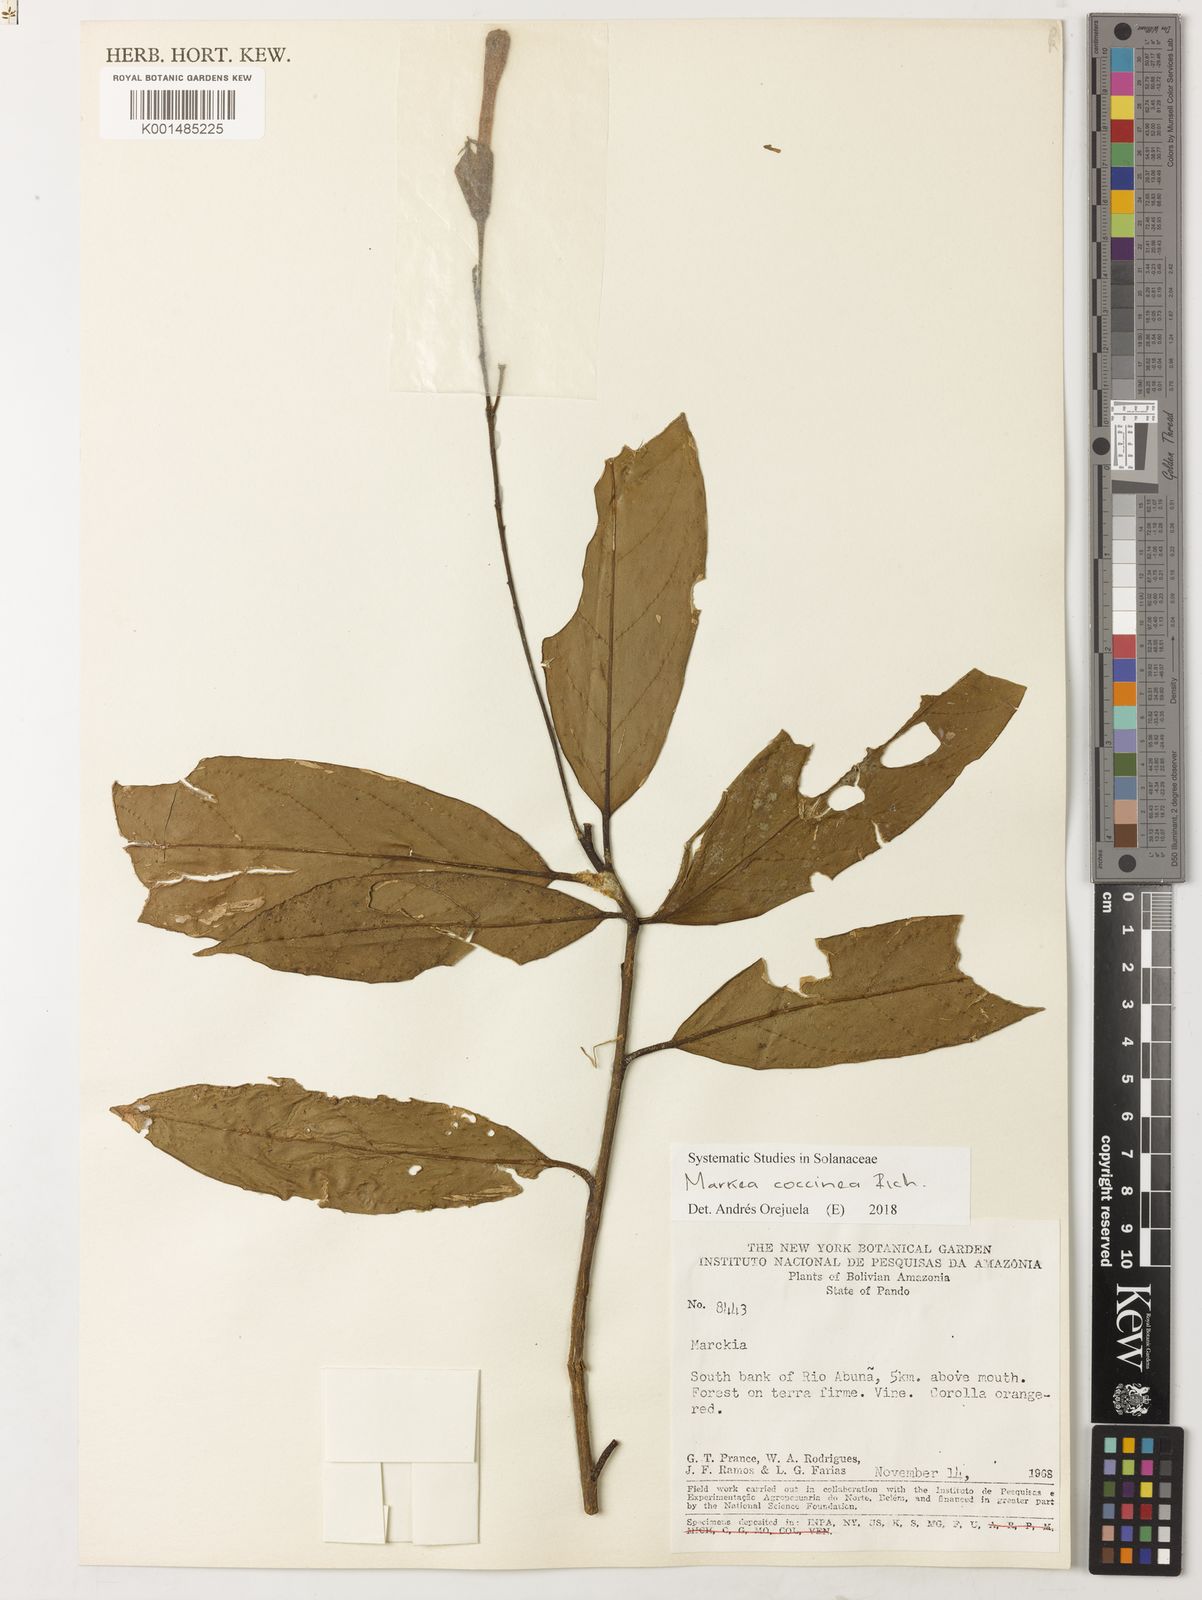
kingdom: Plantae
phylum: Tracheophyta
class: Magnoliopsida
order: Solanales
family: Solanaceae
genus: Markea
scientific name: Markea coccinea
